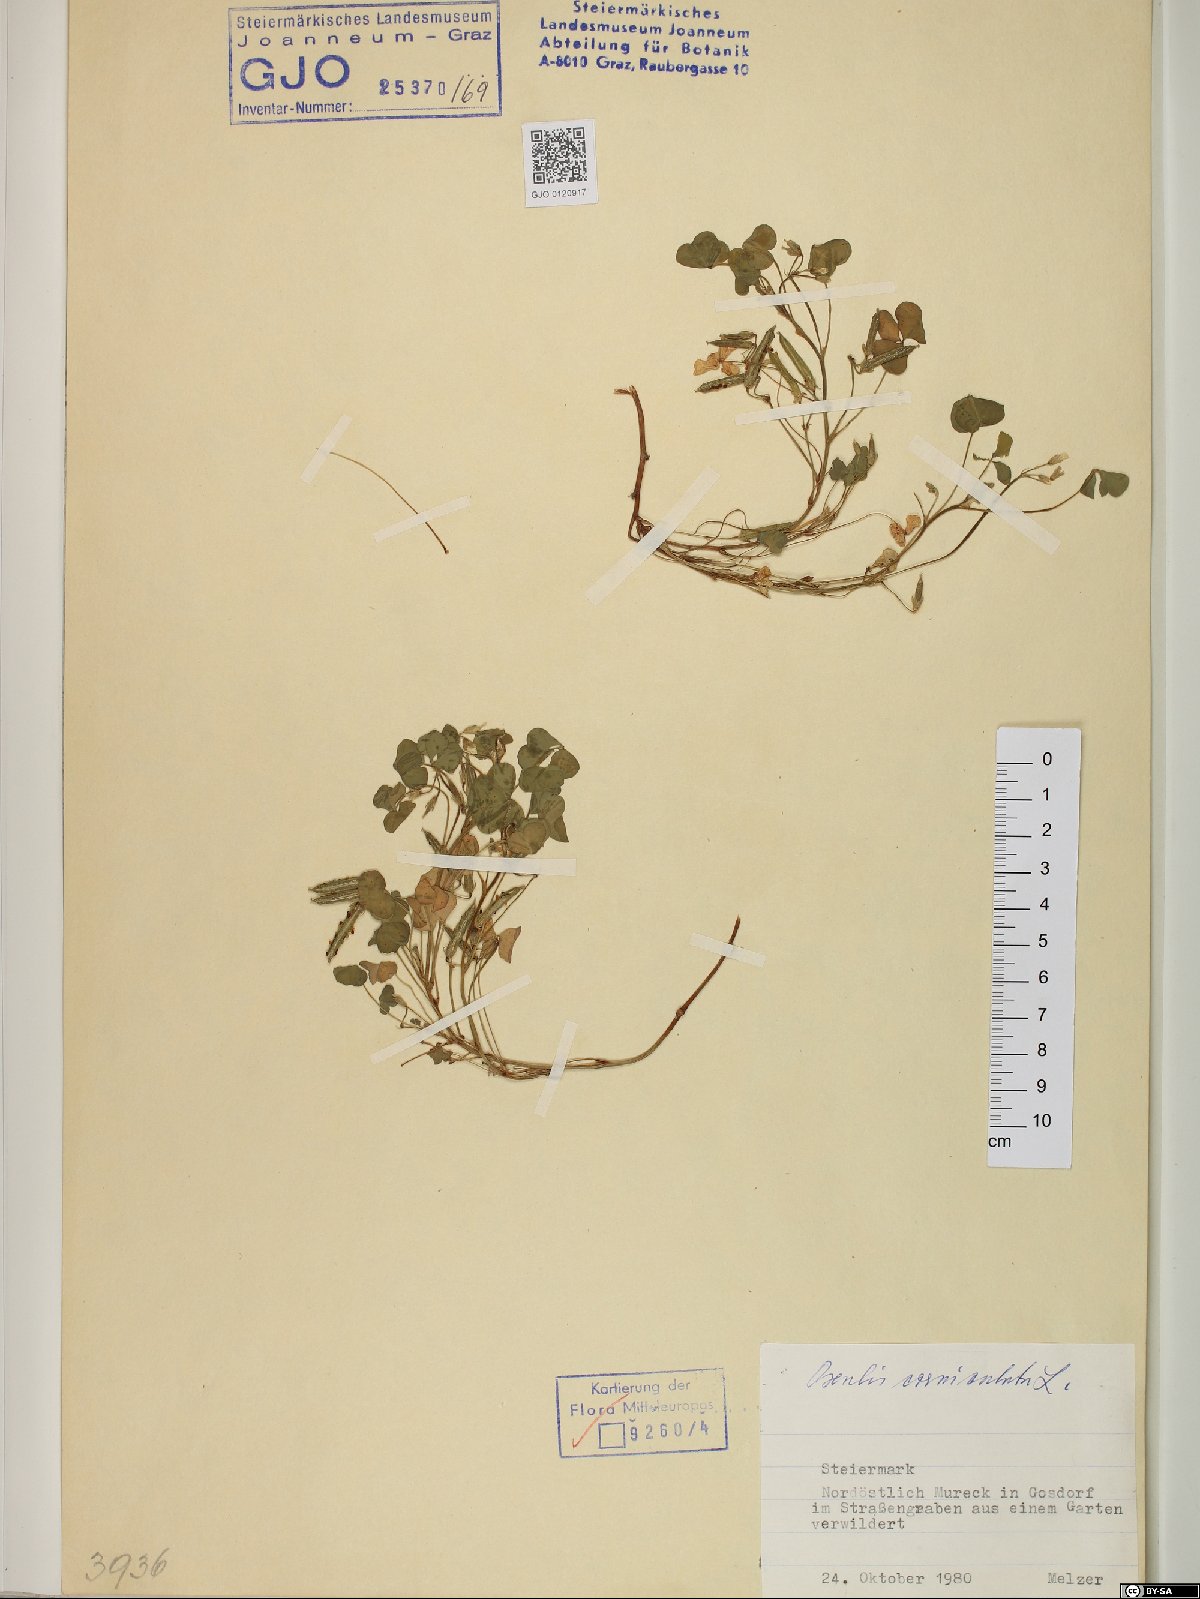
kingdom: Plantae
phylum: Tracheophyta
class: Magnoliopsida
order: Oxalidales
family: Oxalidaceae
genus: Oxalis
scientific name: Oxalis corniculata
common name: Procumbent yellow-sorrel
